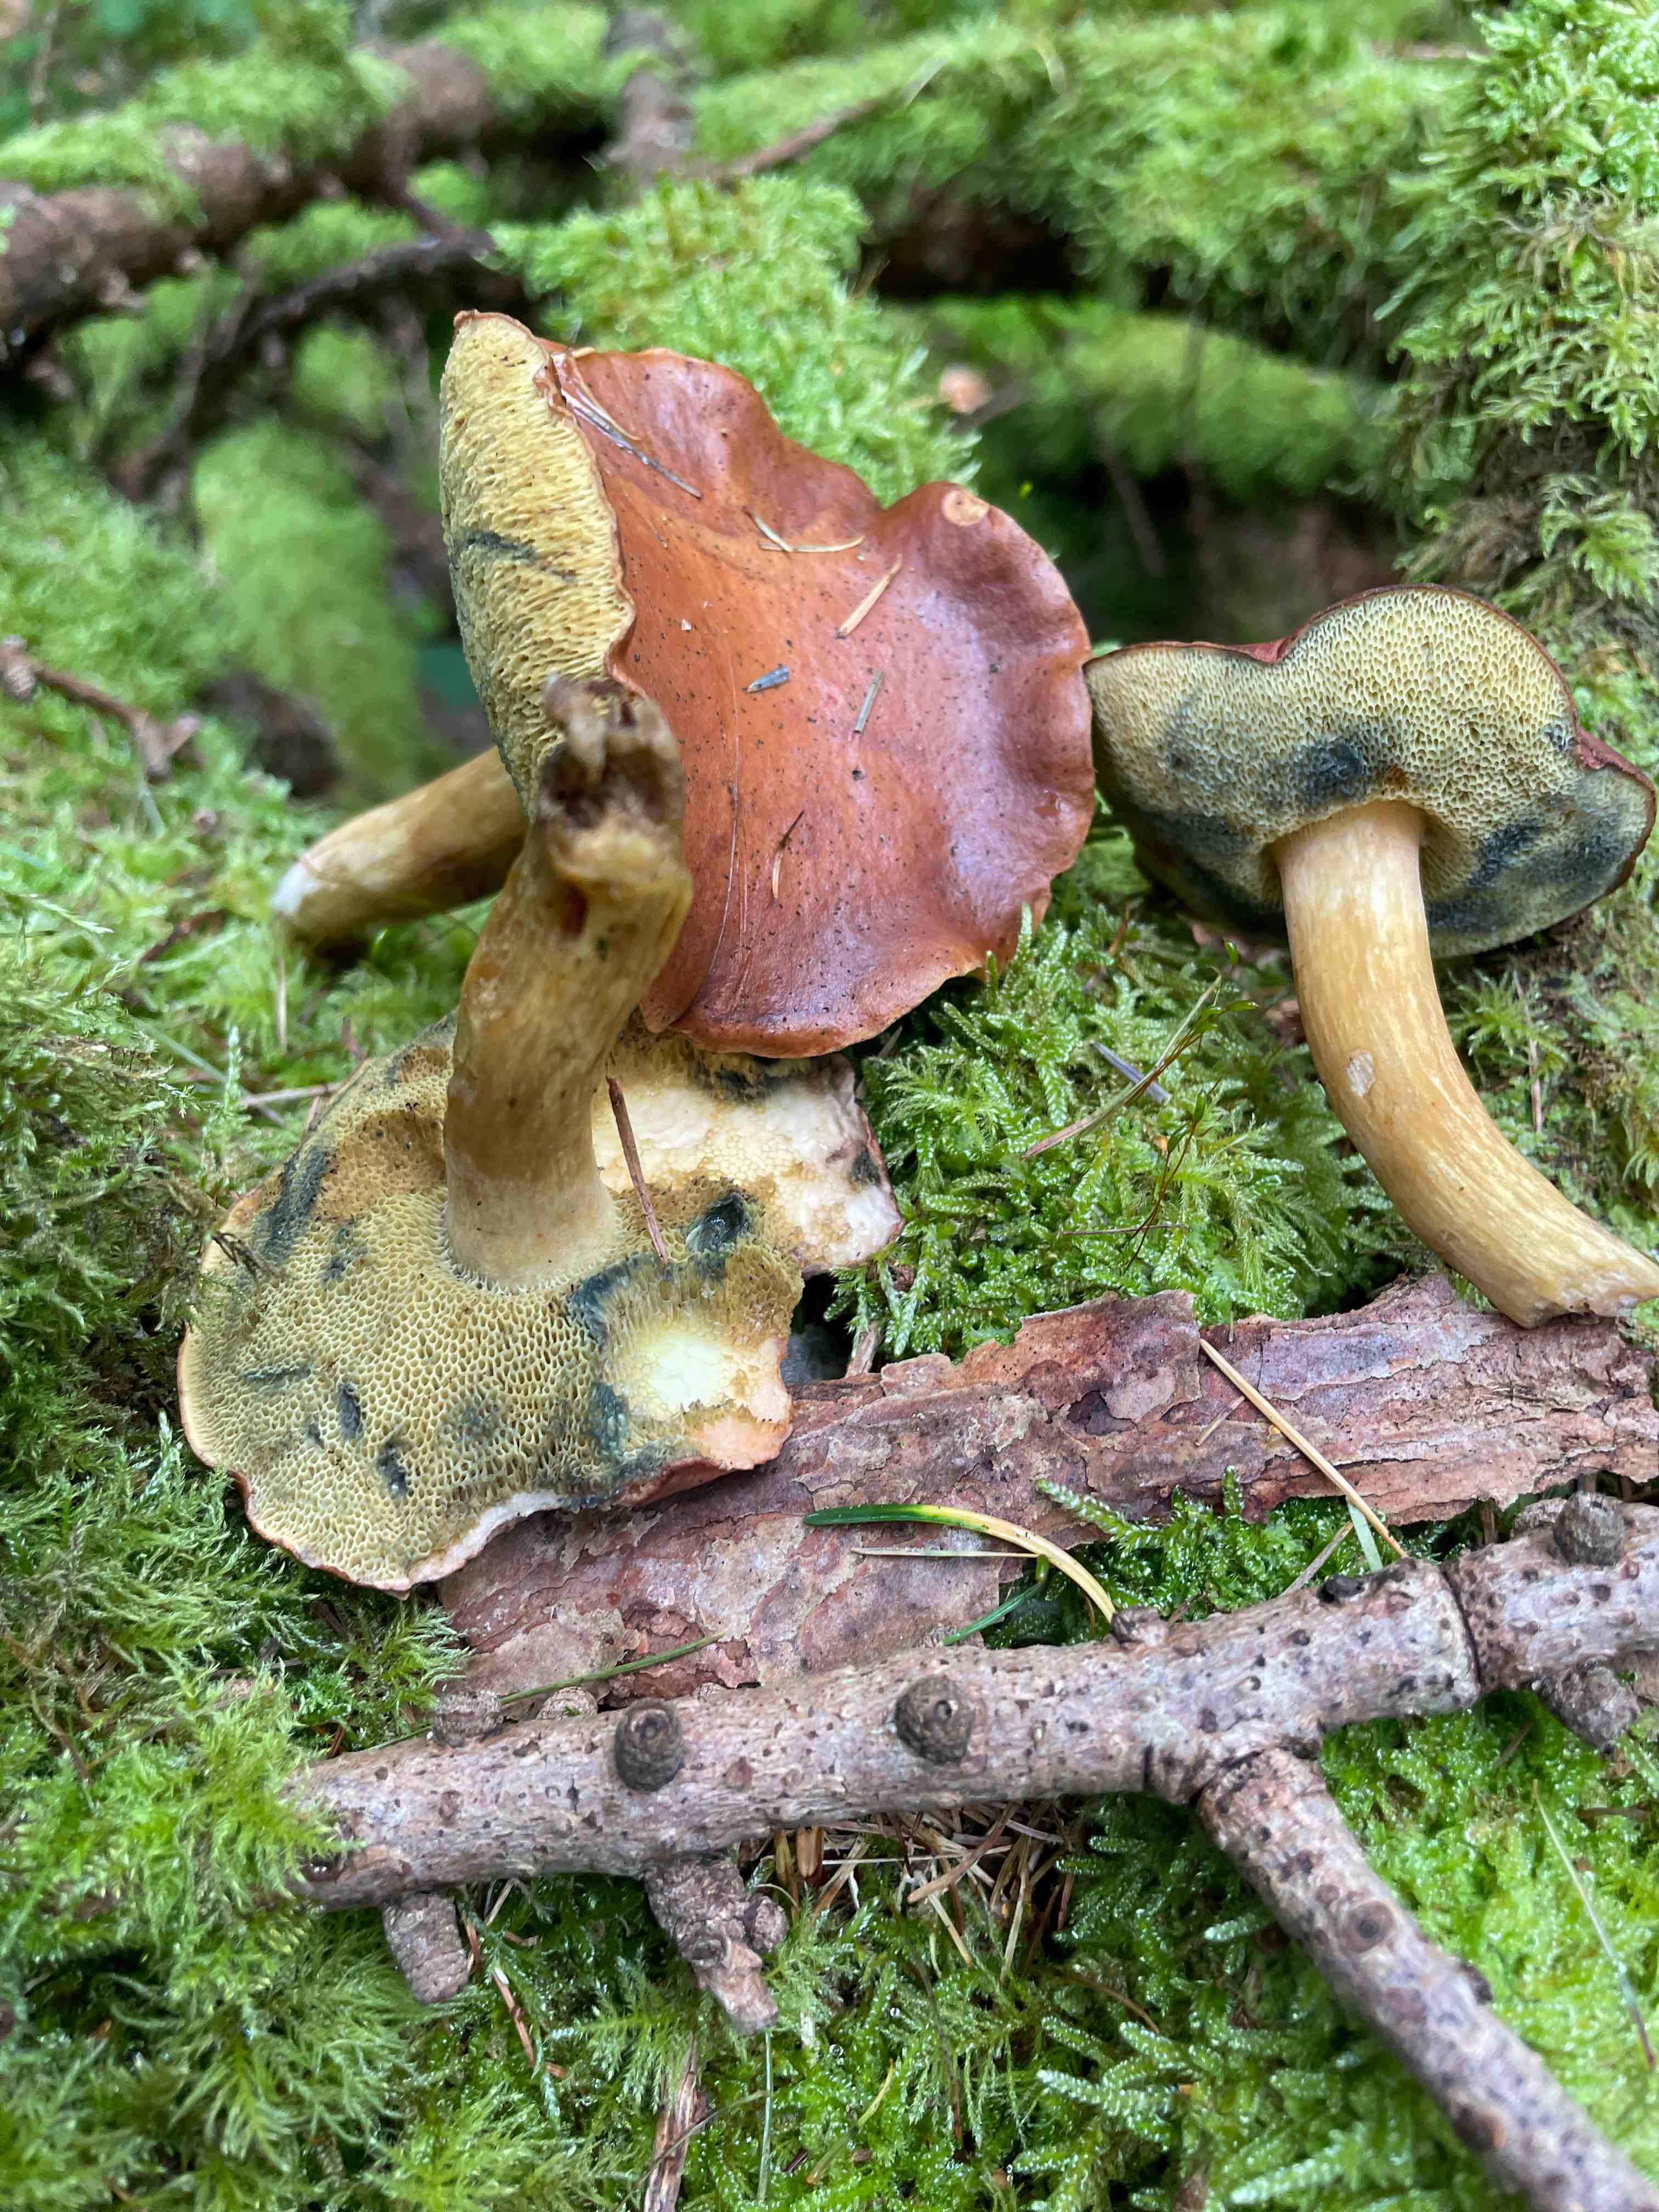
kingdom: Fungi
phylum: Basidiomycota
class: Agaricomycetes
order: Boletales
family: Boletaceae
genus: Imleria
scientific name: Imleria badia
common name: brunstokket rørhat
